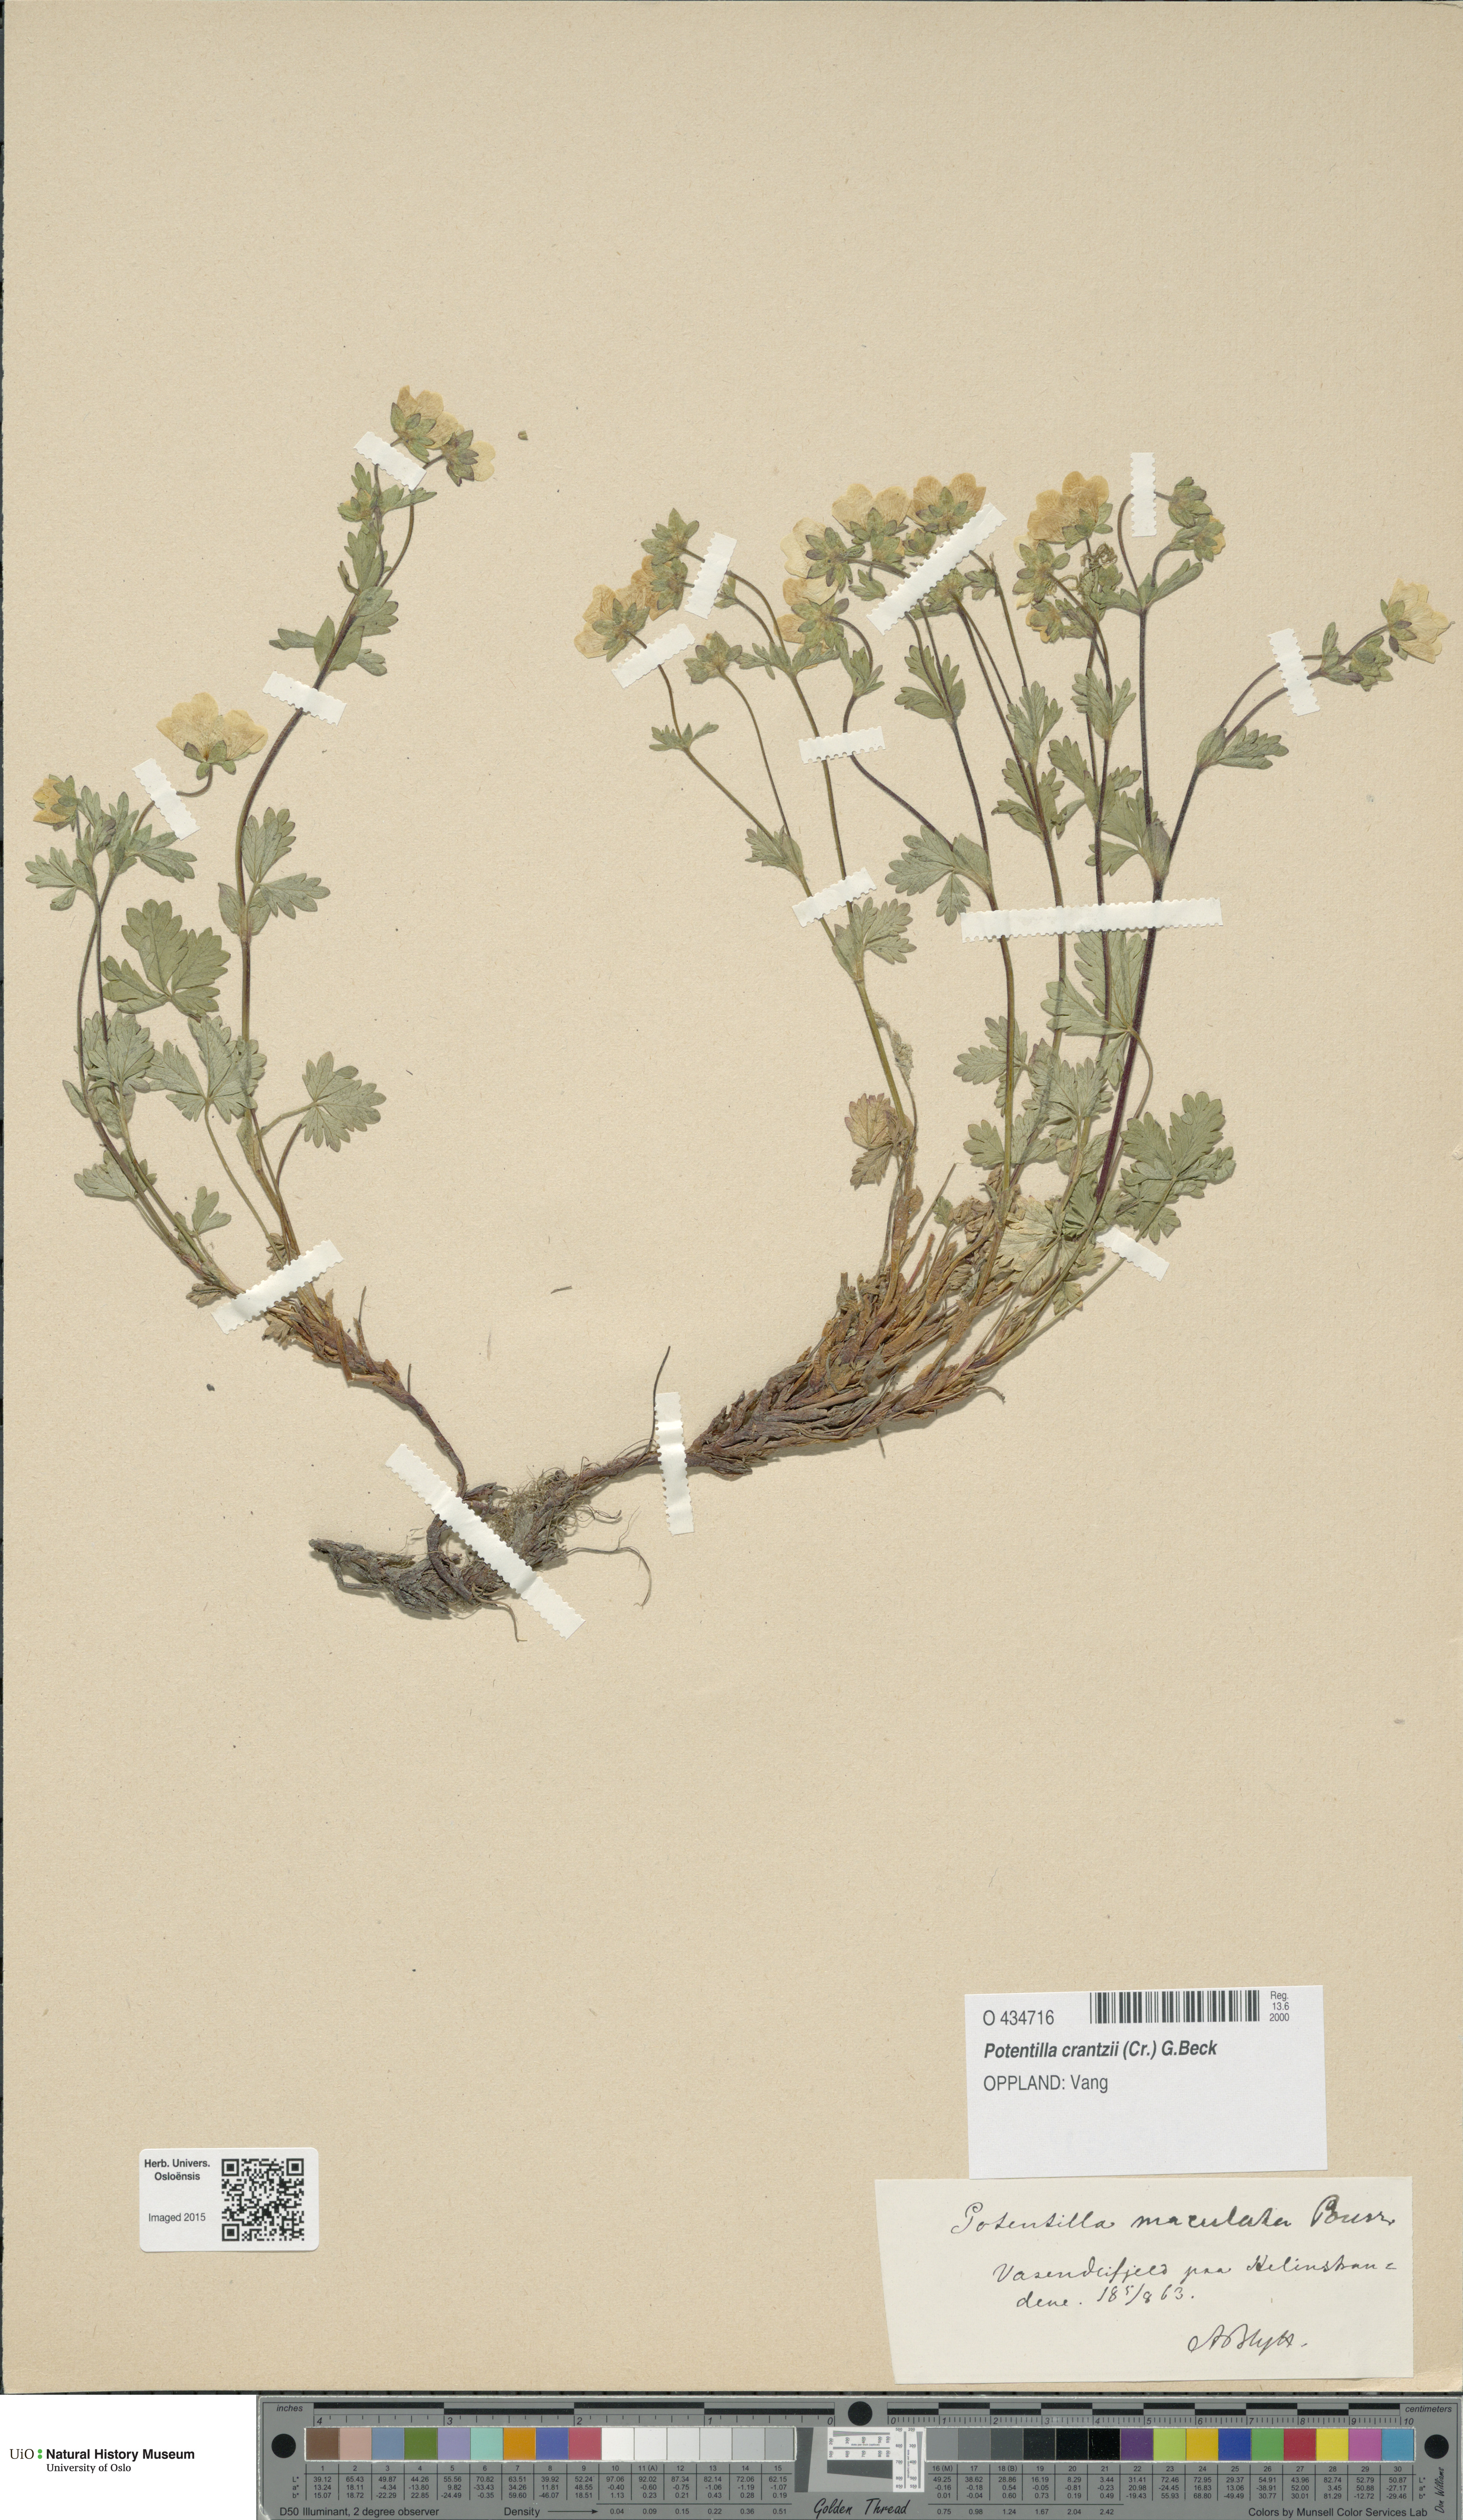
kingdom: Plantae
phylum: Tracheophyta
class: Magnoliopsida
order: Rosales
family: Rosaceae
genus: Potentilla
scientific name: Potentilla crantzii
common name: Alpine cinquefoil
